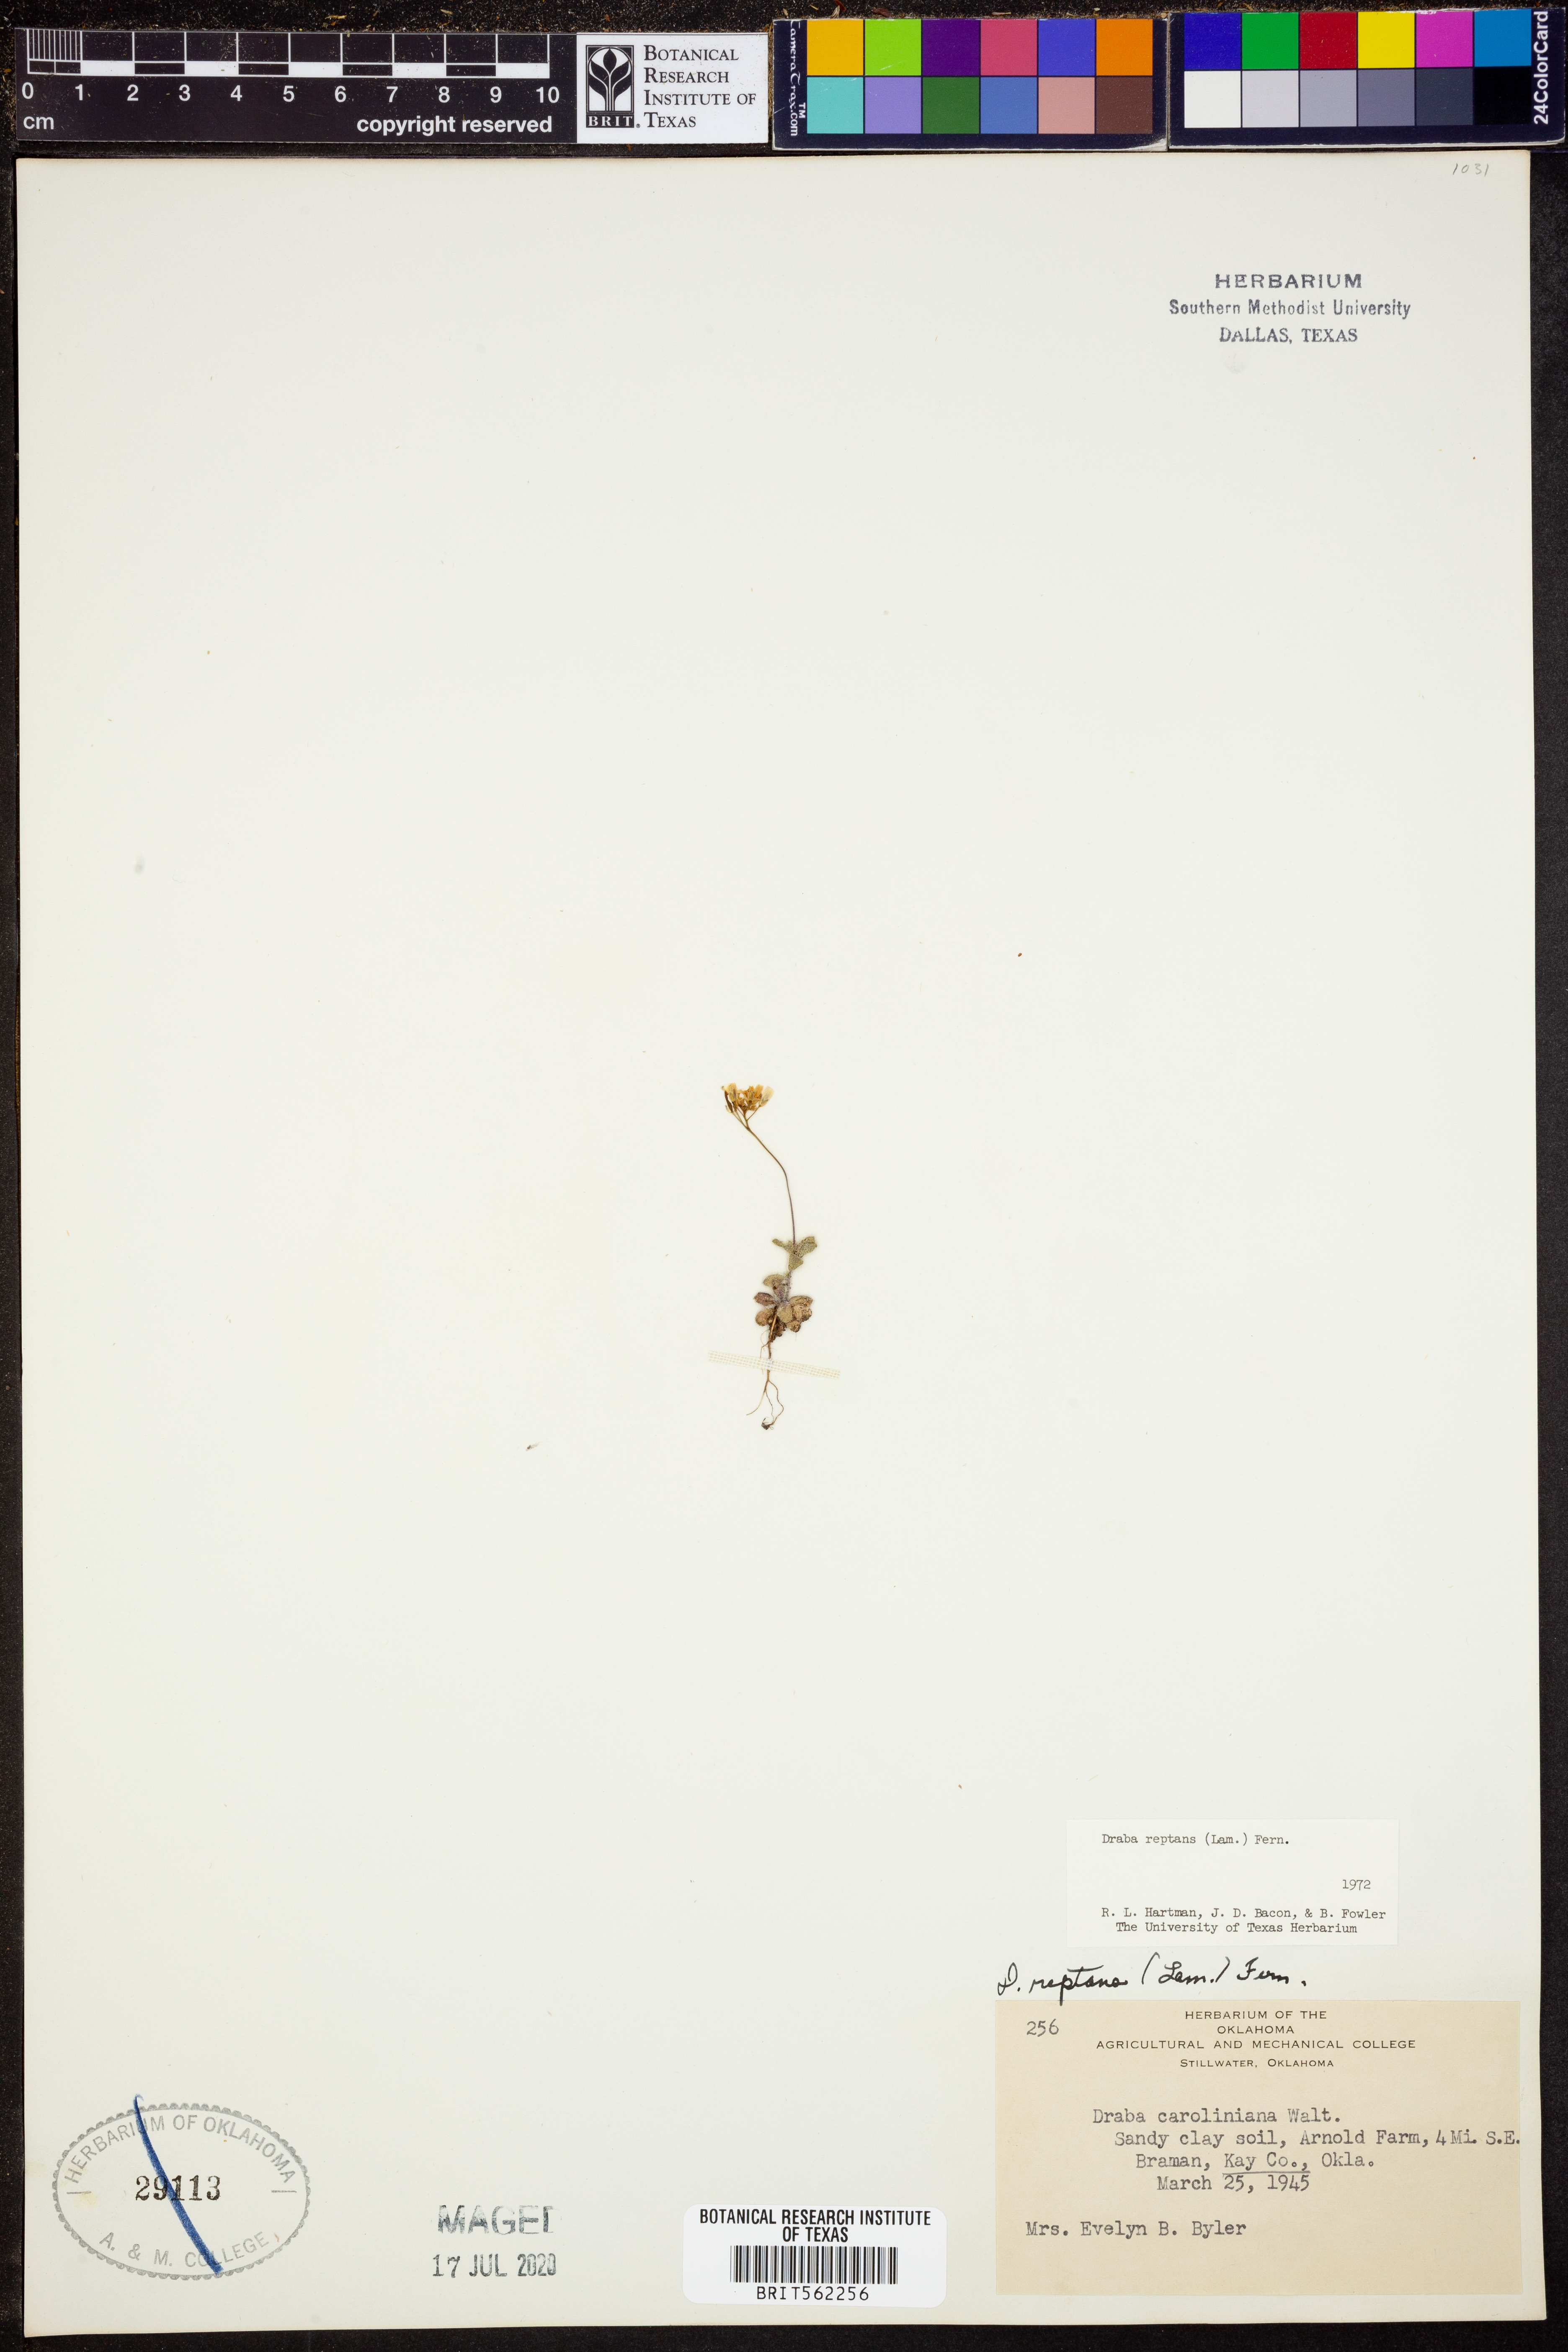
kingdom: Plantae
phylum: Tracheophyta
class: Magnoliopsida
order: Brassicales
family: Brassicaceae
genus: Tomostima
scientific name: Tomostima reptans
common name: Carolina draba
